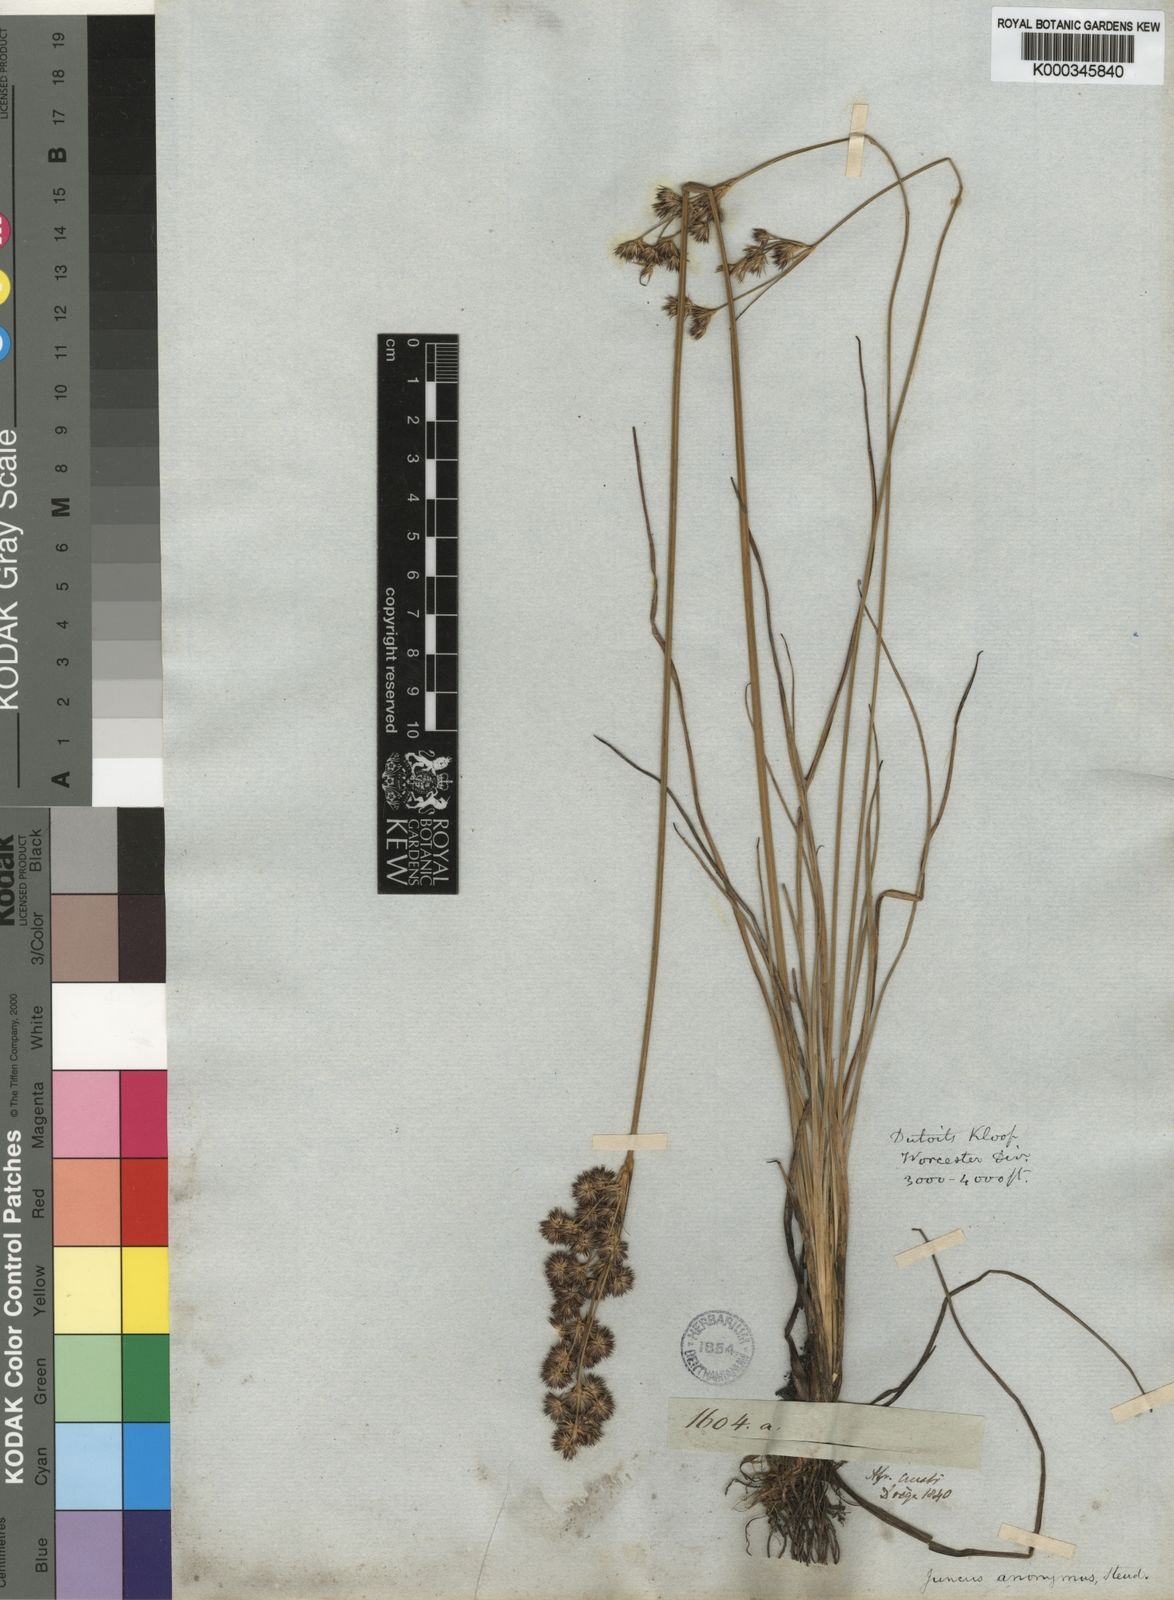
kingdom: Plantae
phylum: Tracheophyta
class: Liliopsida
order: Poales
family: Juncaceae
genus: Juncus
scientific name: Juncus capensis
